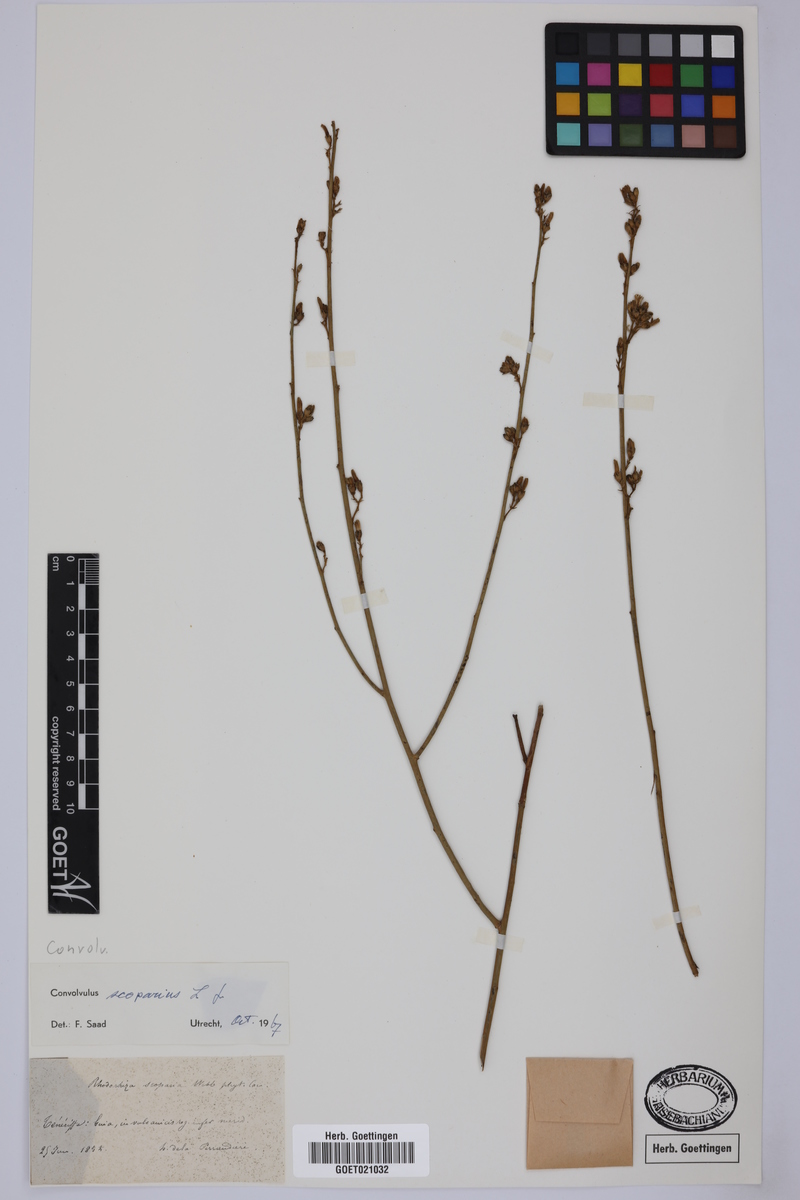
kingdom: Plantae
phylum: Tracheophyta
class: Magnoliopsida
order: Solanales
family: Convolvulaceae
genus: Convolvulus
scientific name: Convolvulus scoparius
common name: Lignum rhodium
